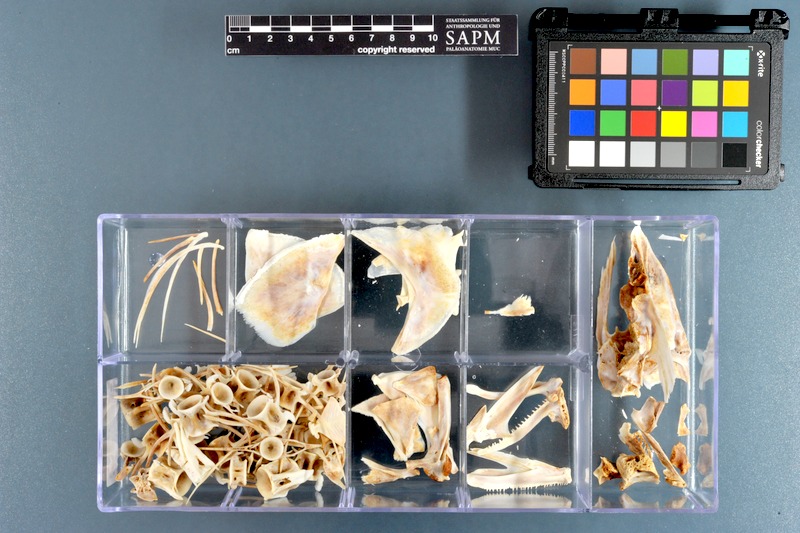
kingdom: Animalia
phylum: Chordata
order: Perciformes
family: Scombridae
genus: Thunnus
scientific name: Thunnus obesus
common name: Bigeye tuna
